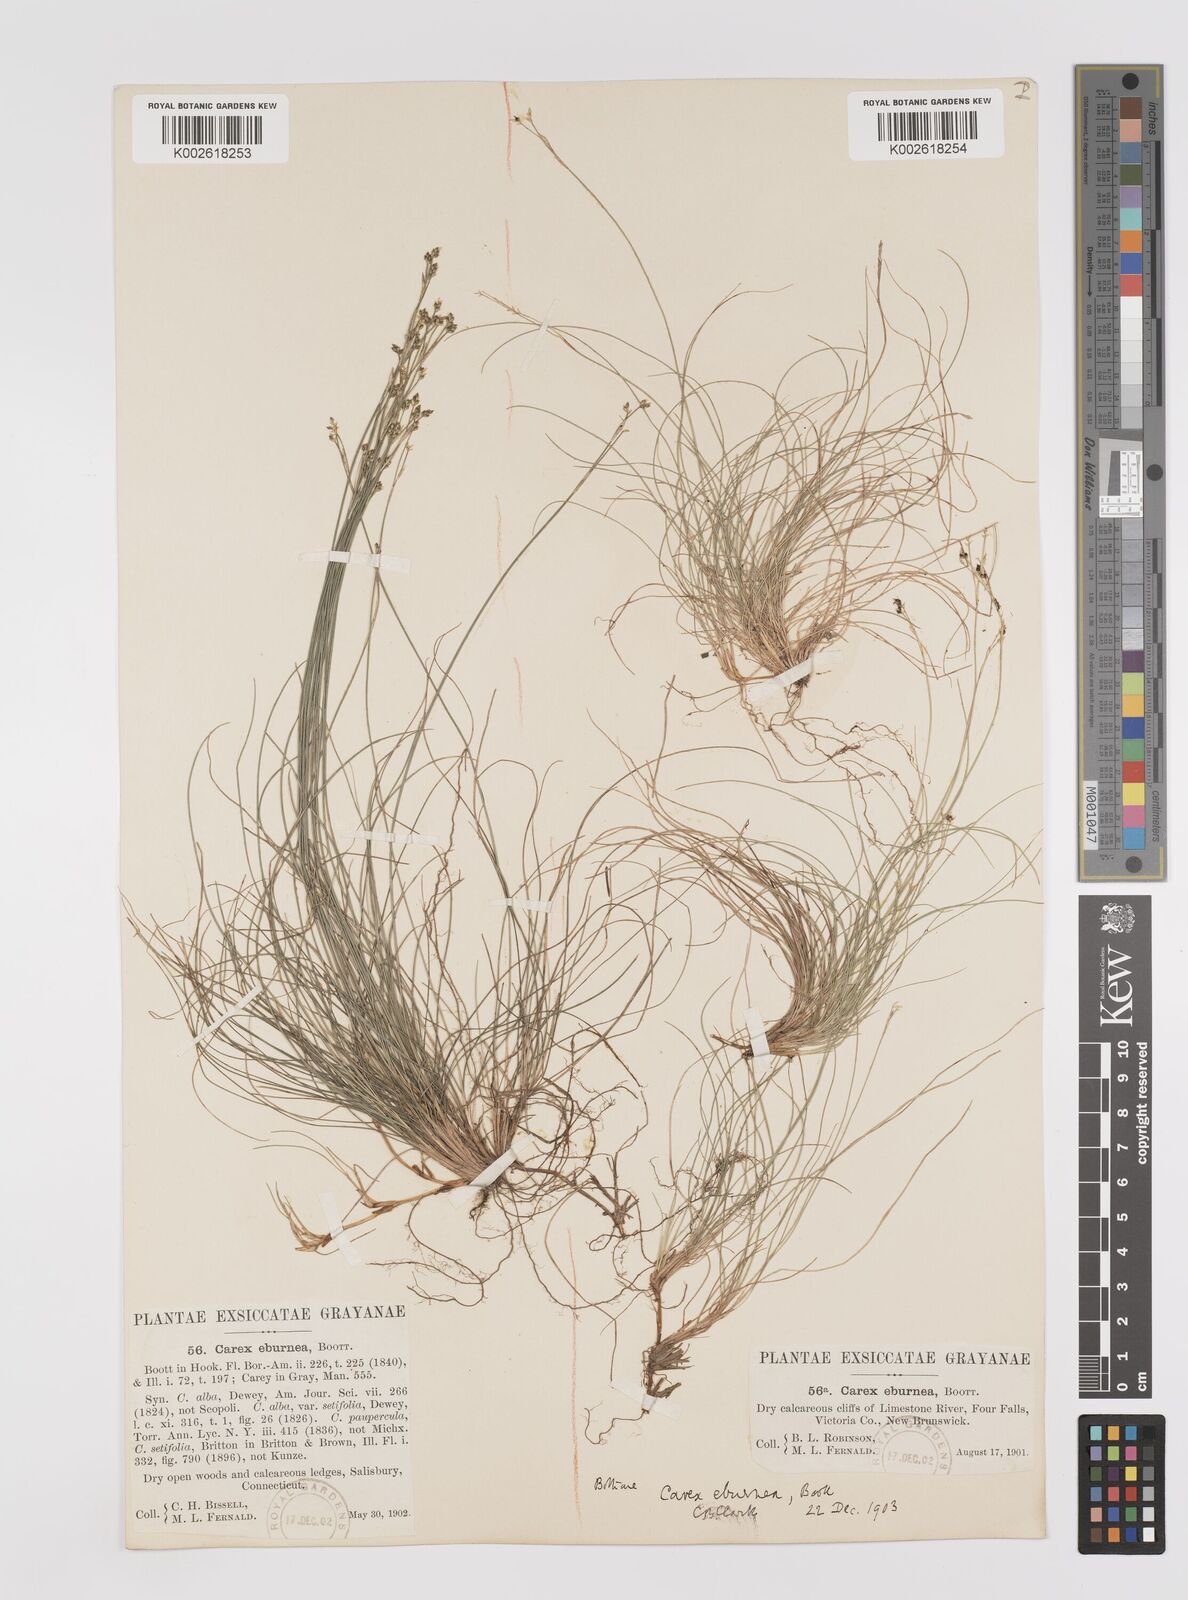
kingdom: Plantae
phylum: Tracheophyta
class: Liliopsida
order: Poales
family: Cyperaceae
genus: Carex
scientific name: Carex eburnea
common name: Bristle-leaved sedge
